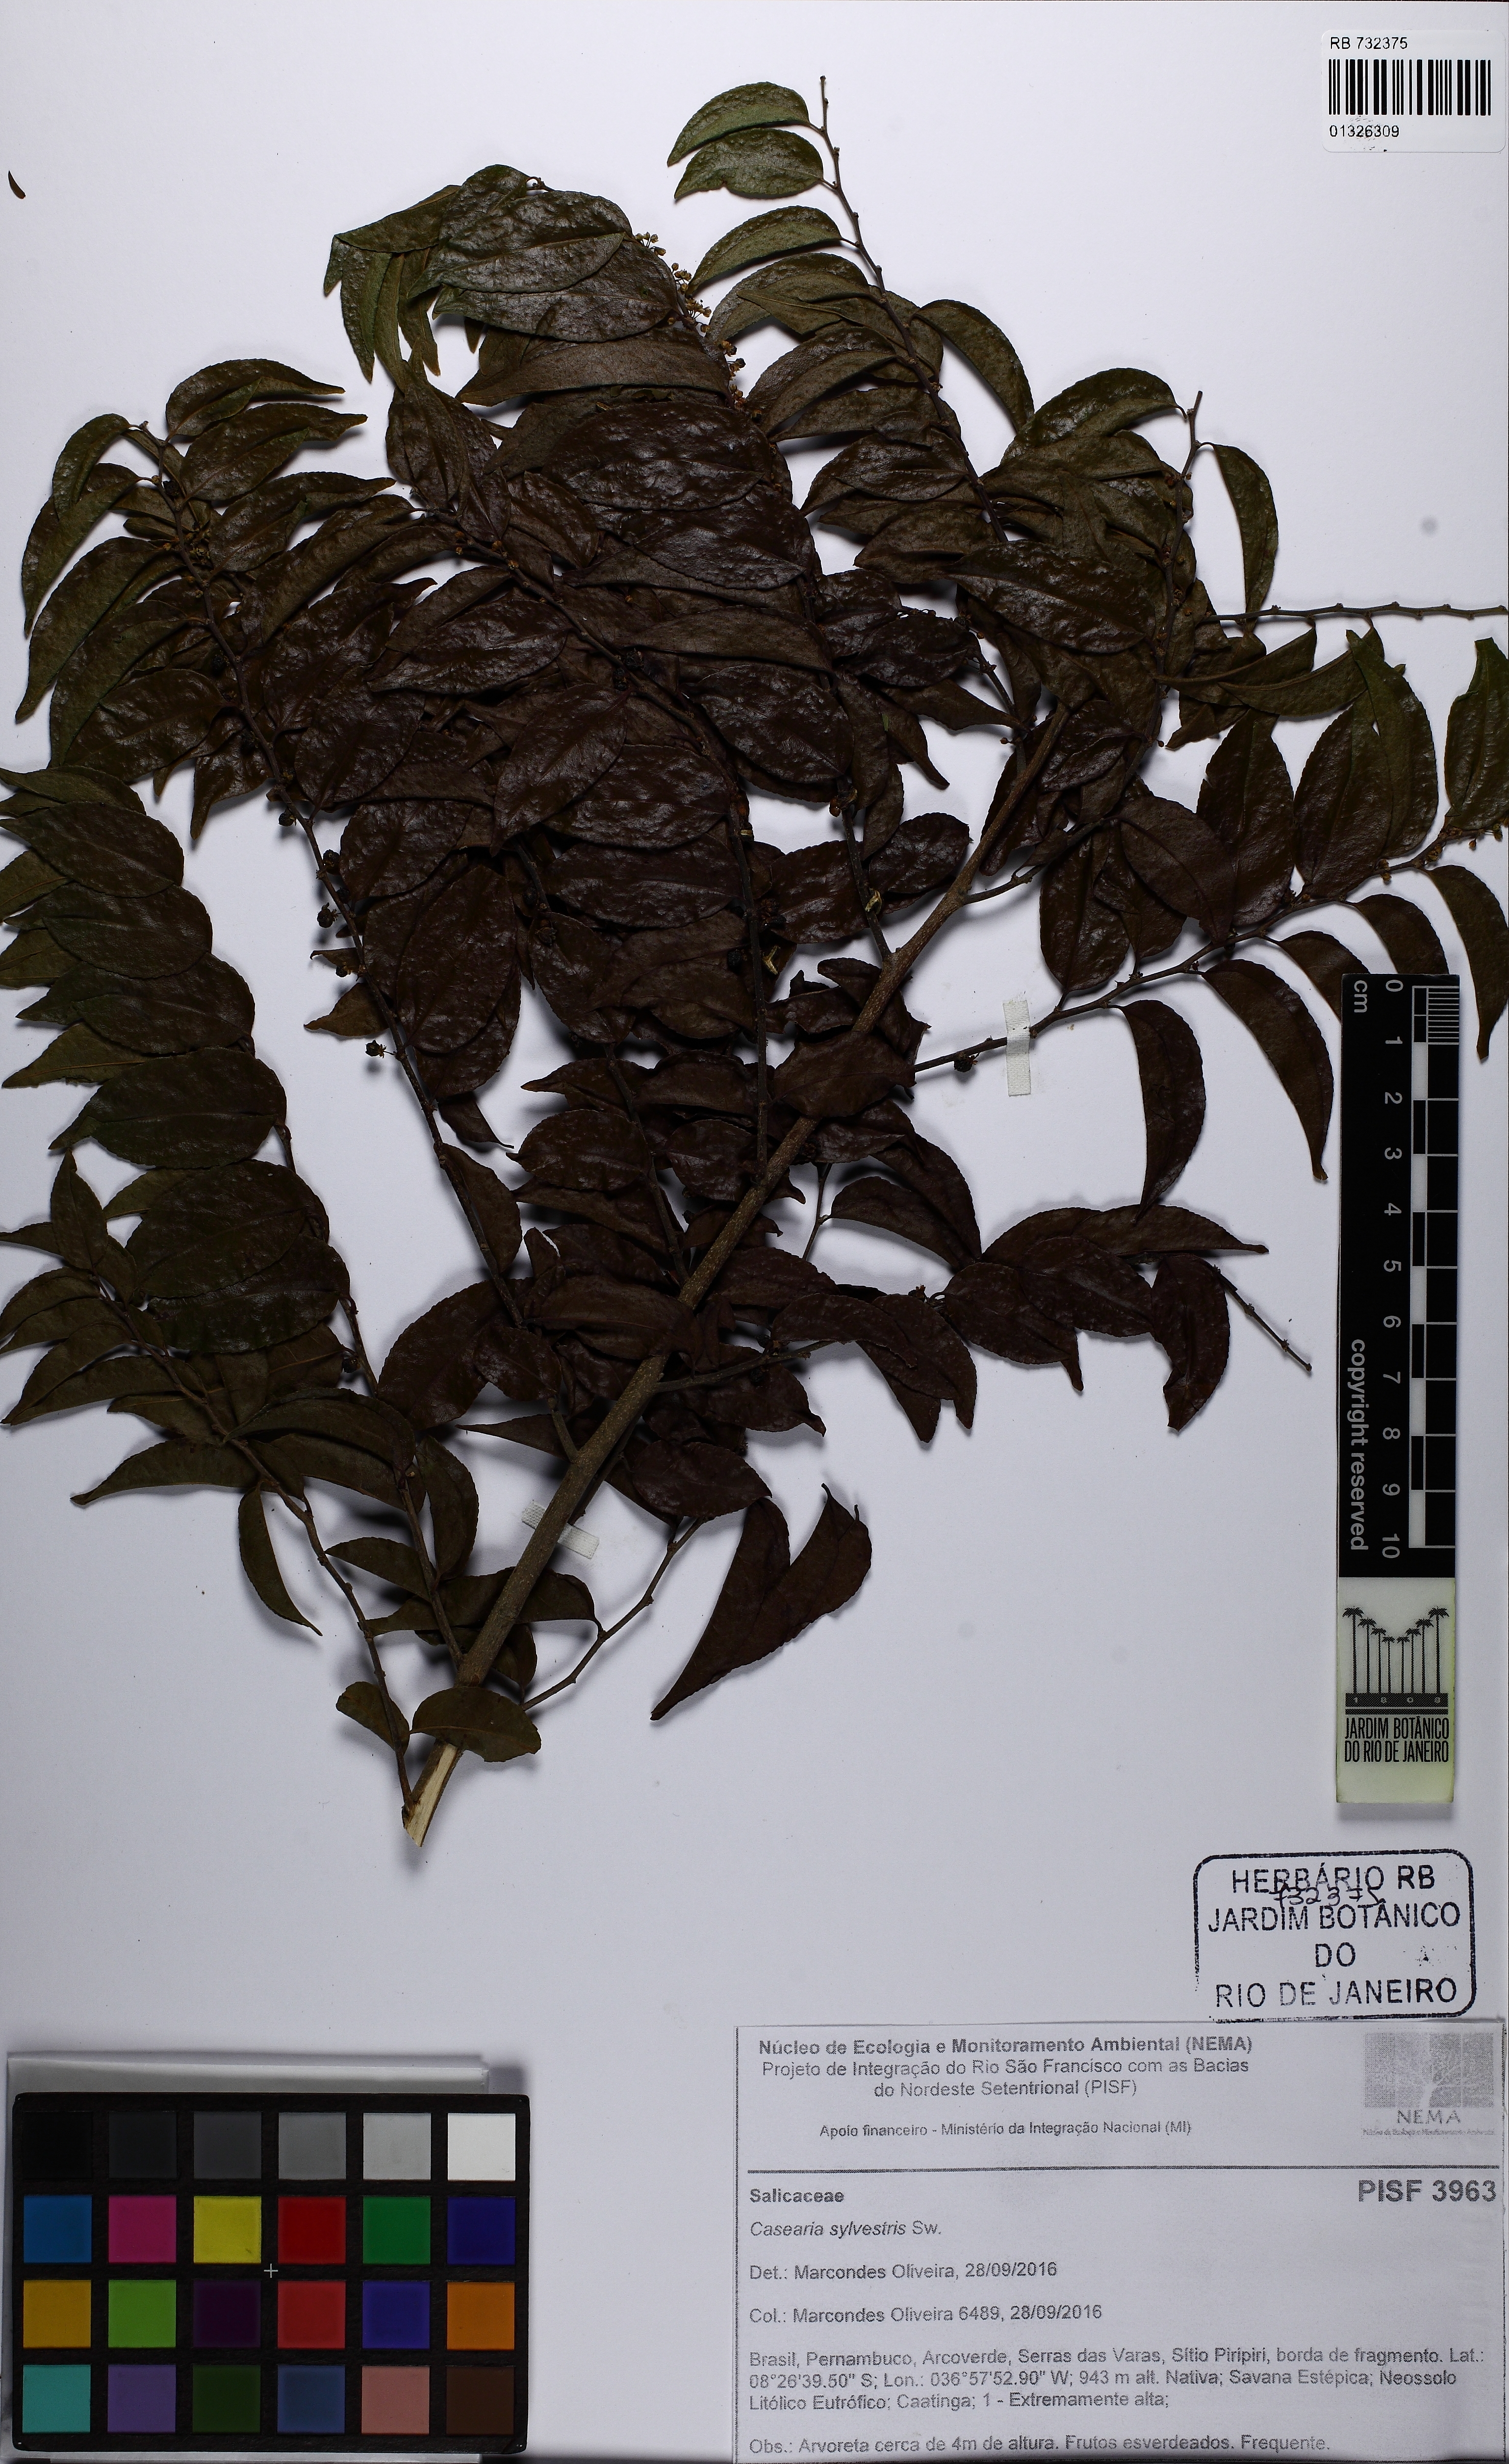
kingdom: Plantae
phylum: Tracheophyta
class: Magnoliopsida
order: Malpighiales
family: Salicaceae
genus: Casearia
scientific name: Casearia sylvestris
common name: Wild sage
